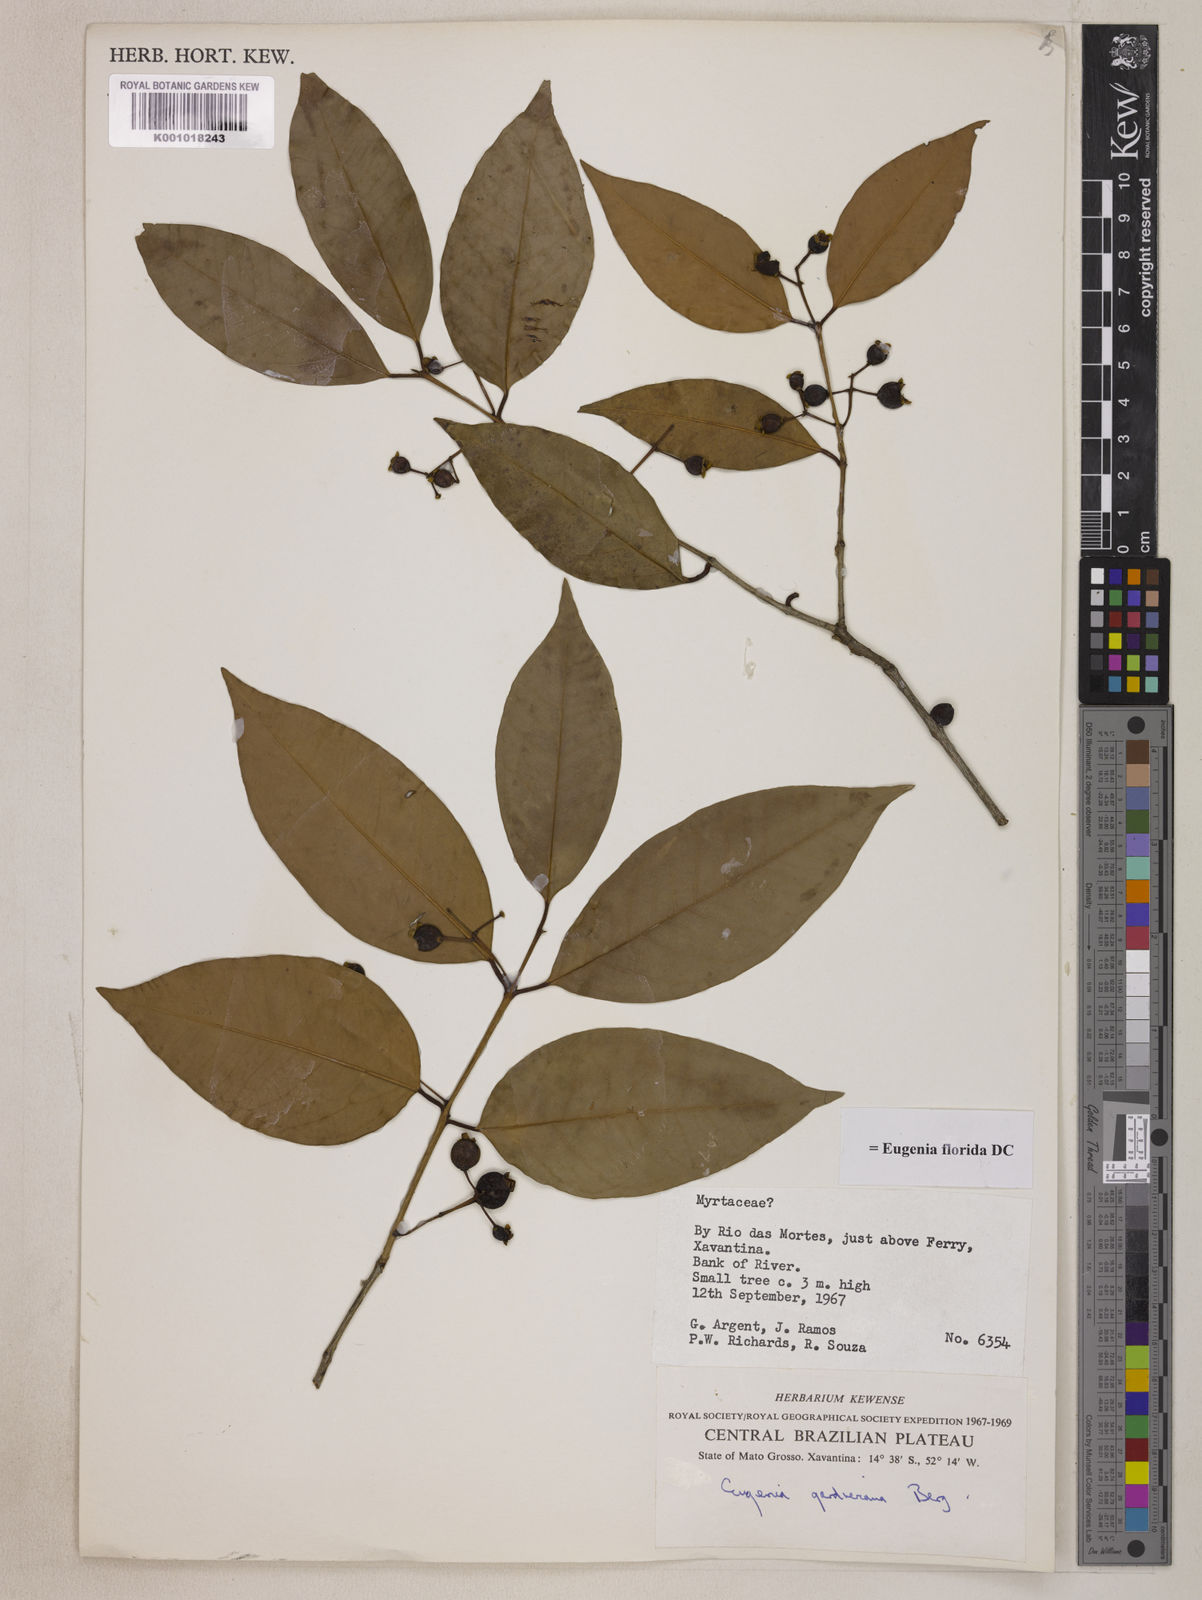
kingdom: Plantae
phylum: Tracheophyta
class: Magnoliopsida
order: Myrtales
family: Myrtaceae
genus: Eugenia
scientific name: Eugenia florida
